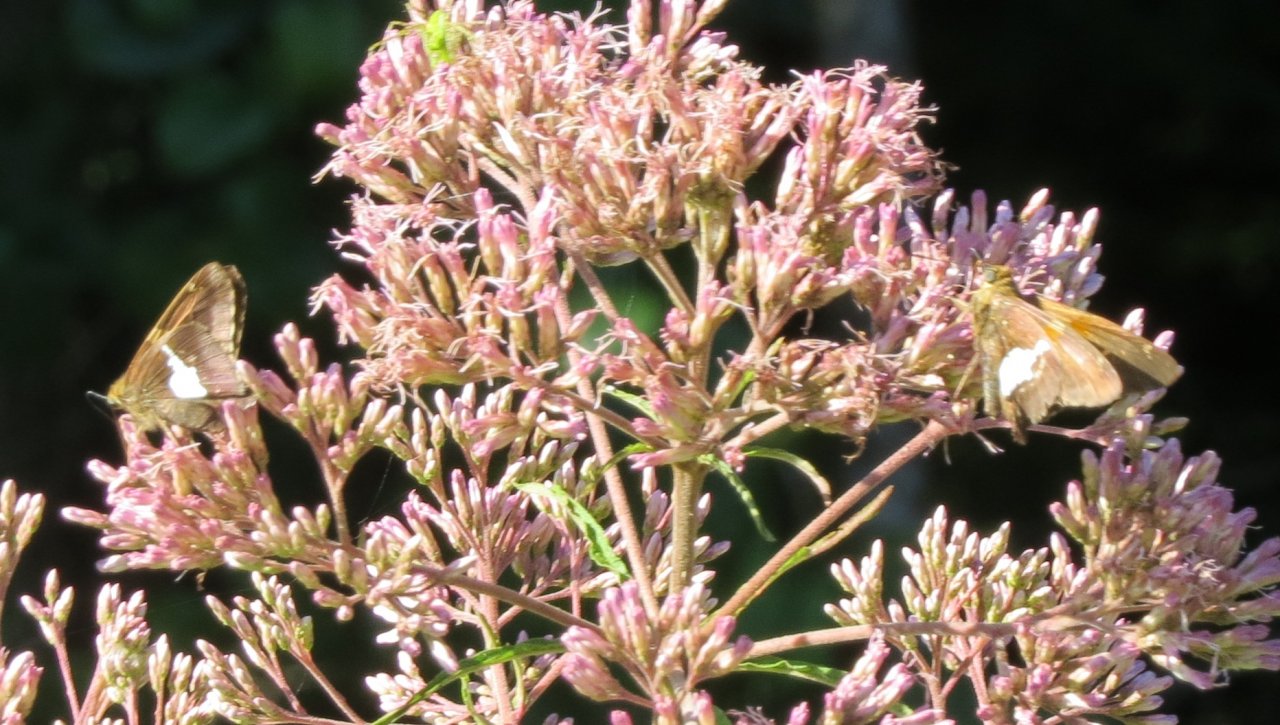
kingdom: Animalia
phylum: Arthropoda
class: Insecta
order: Lepidoptera
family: Hesperiidae
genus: Epargyreus
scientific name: Epargyreus clarus
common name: Silver-spotted Skipper
